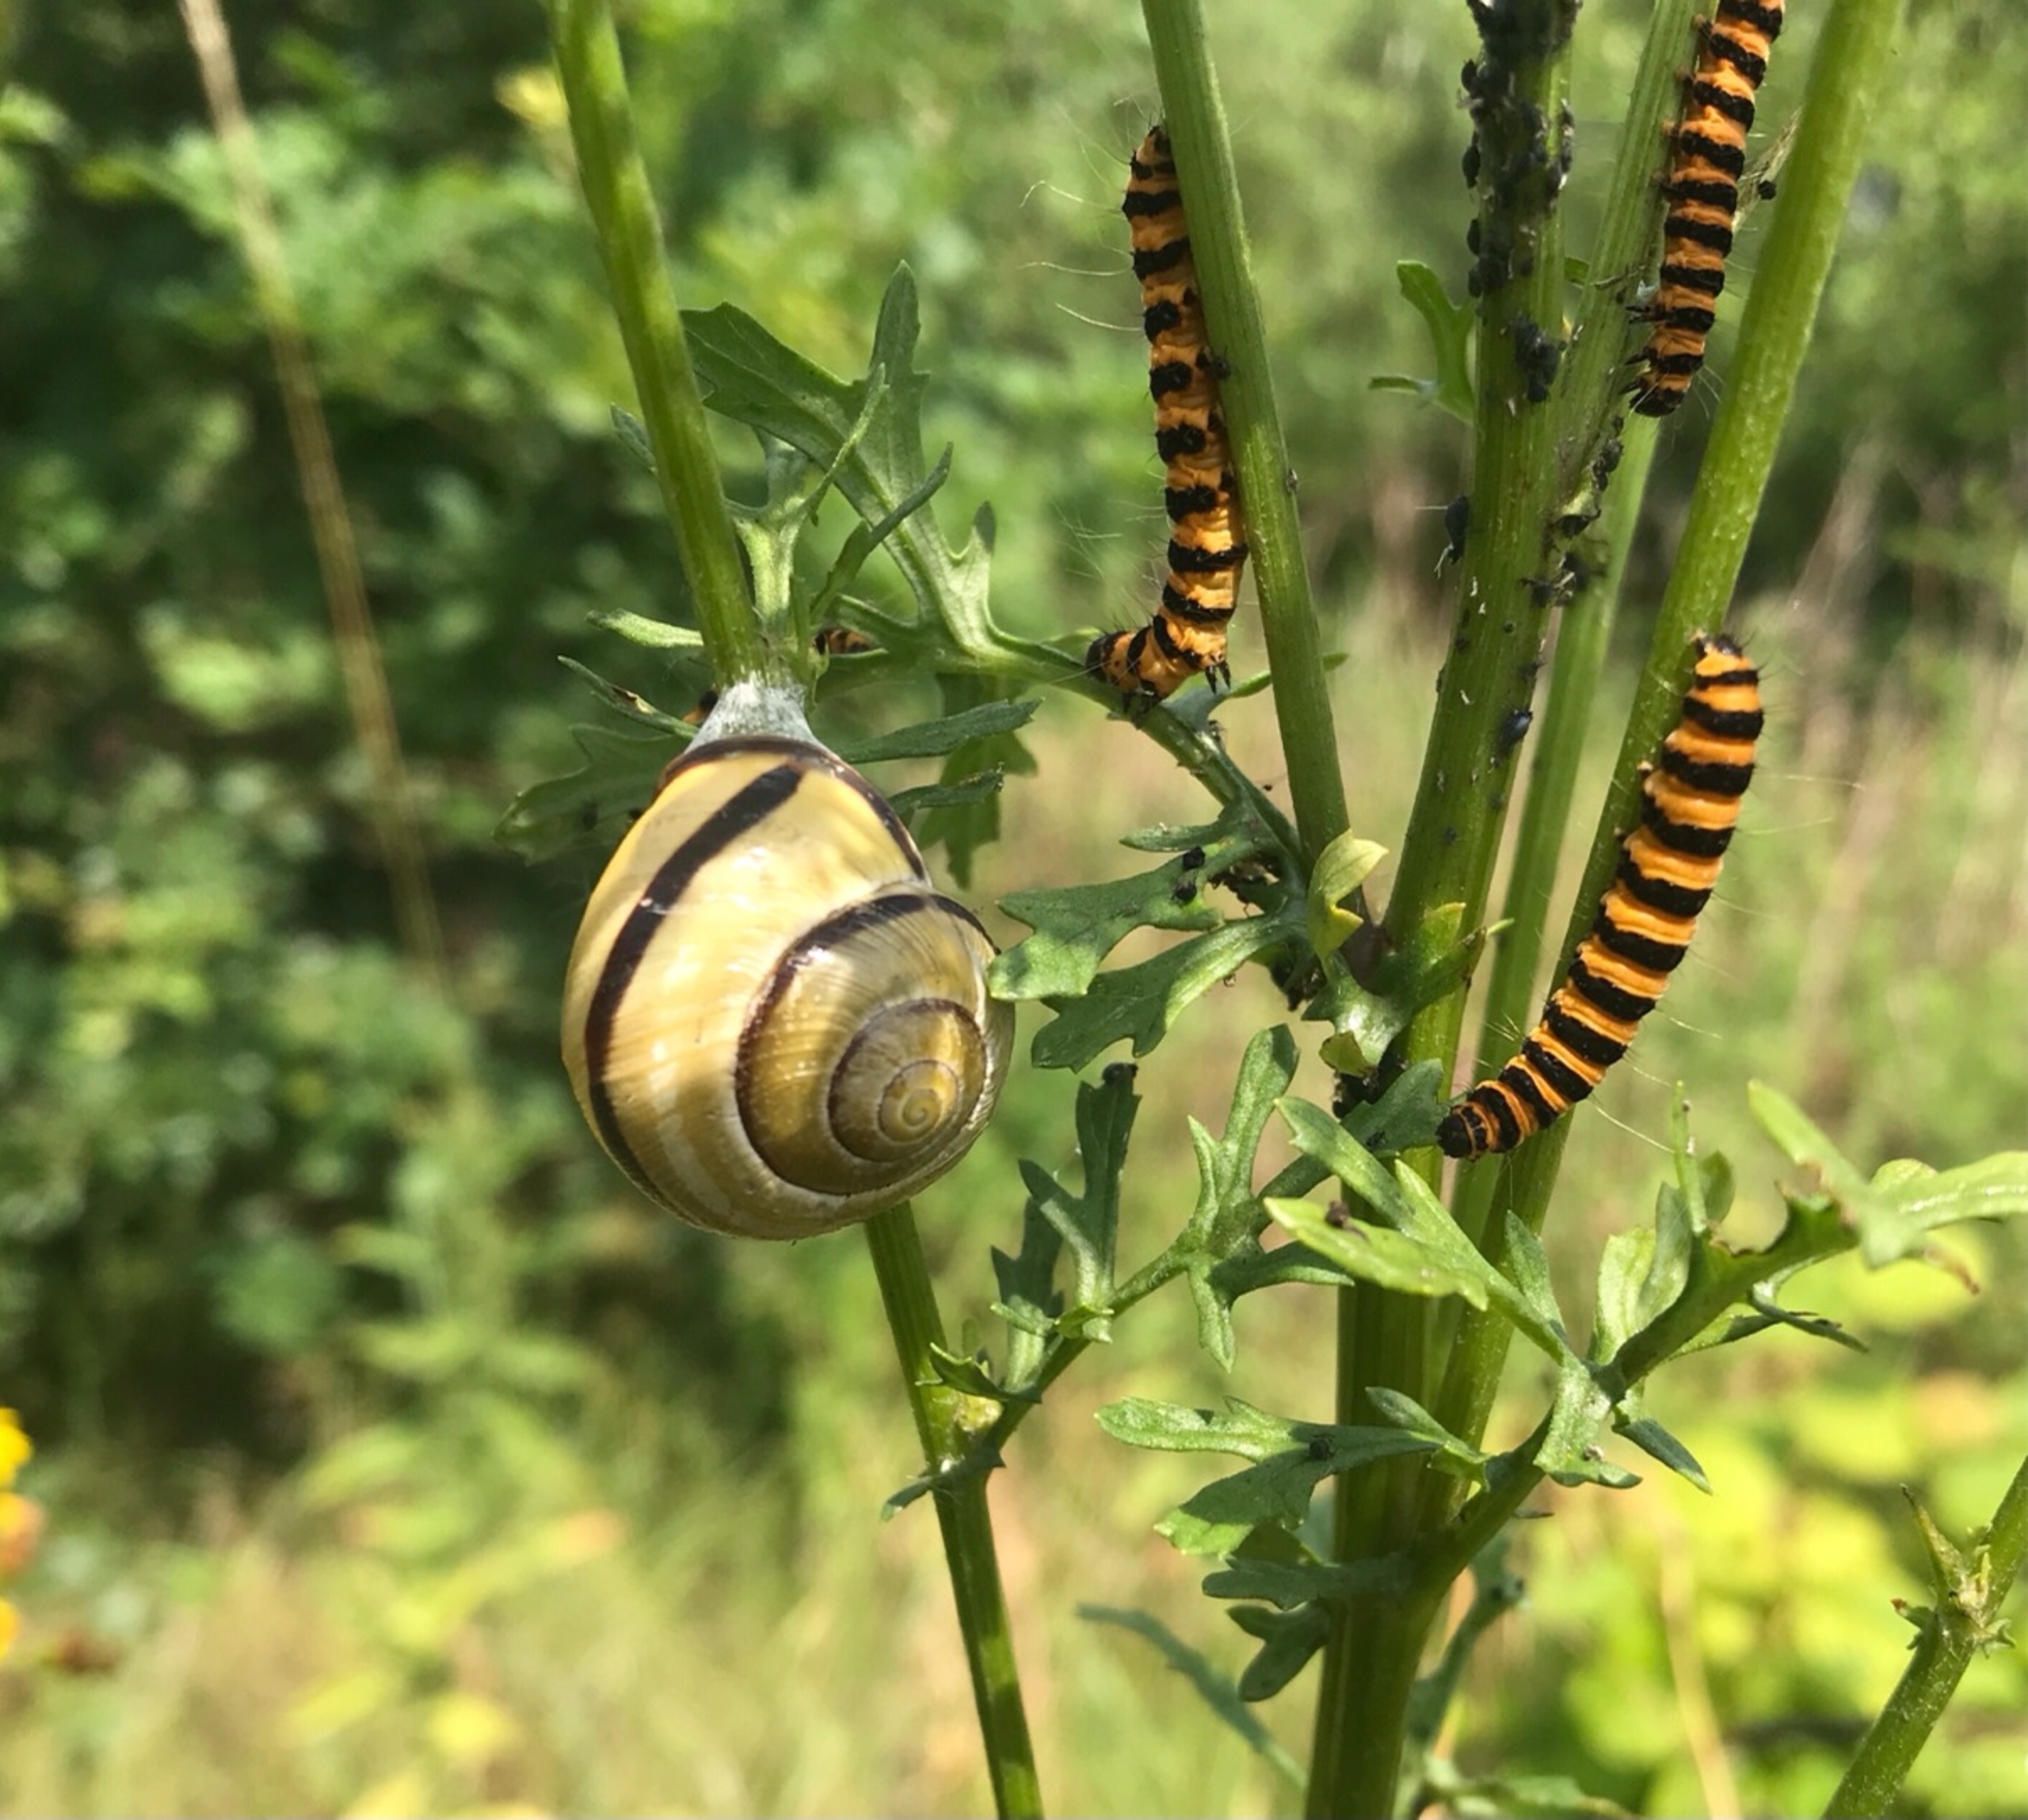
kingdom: Animalia
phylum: Mollusca
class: Gastropoda
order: Stylommatophora
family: Helicidae
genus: Cepaea
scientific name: Cepaea nemoralis
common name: Lundsnegl
